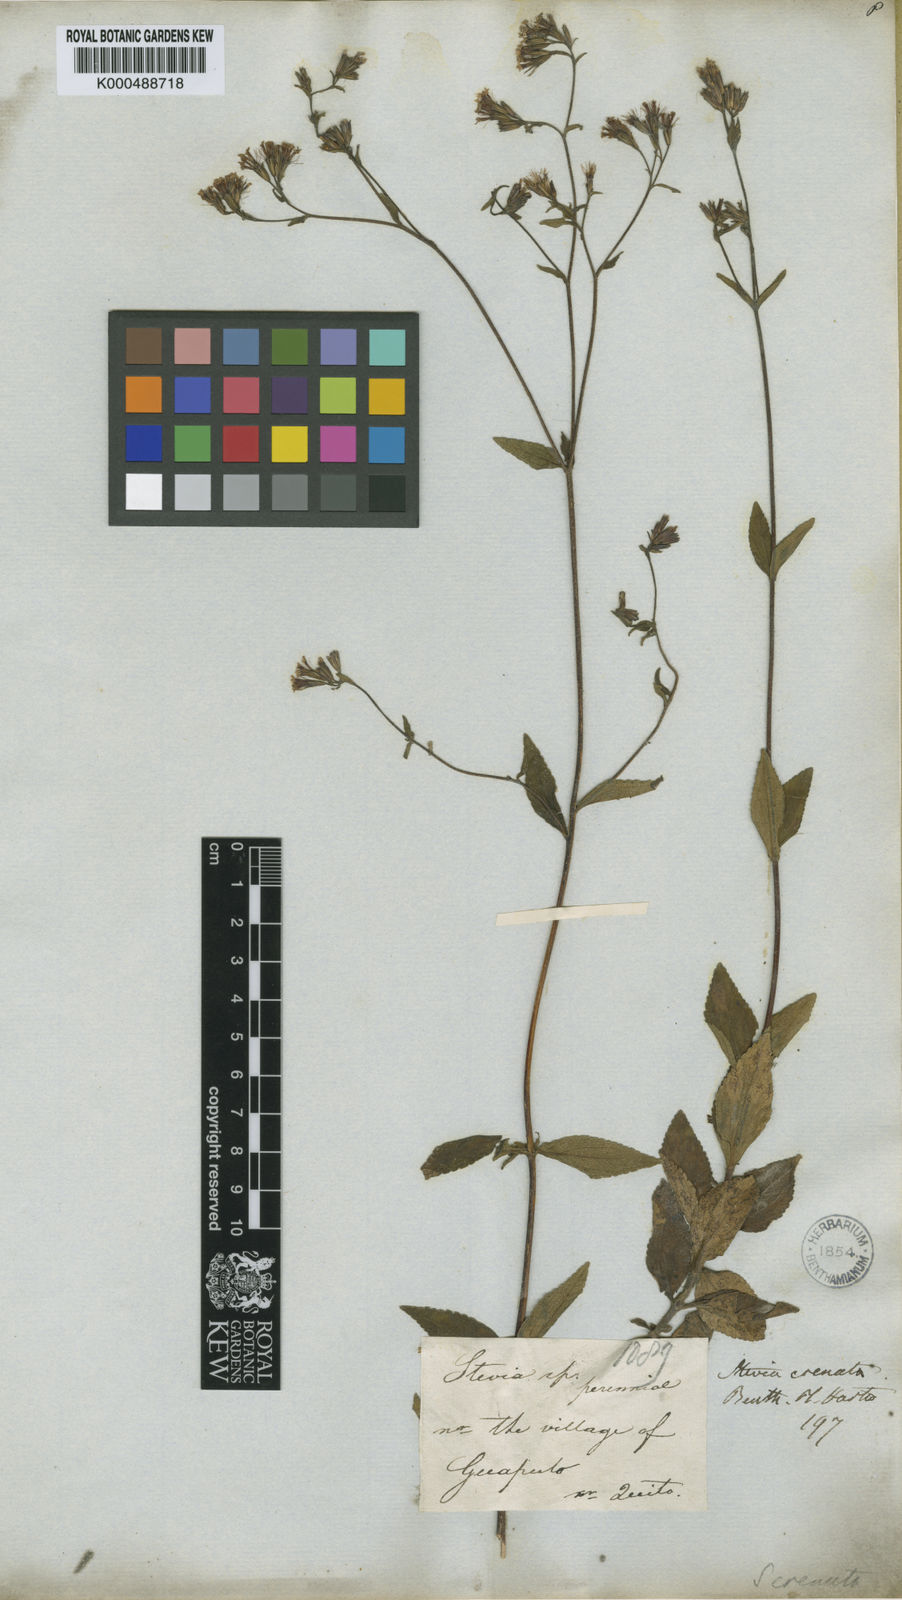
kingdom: Plantae
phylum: Tracheophyta
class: Magnoliopsida
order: Asterales
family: Asteraceae
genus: Stevia
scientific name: Stevia crenata
